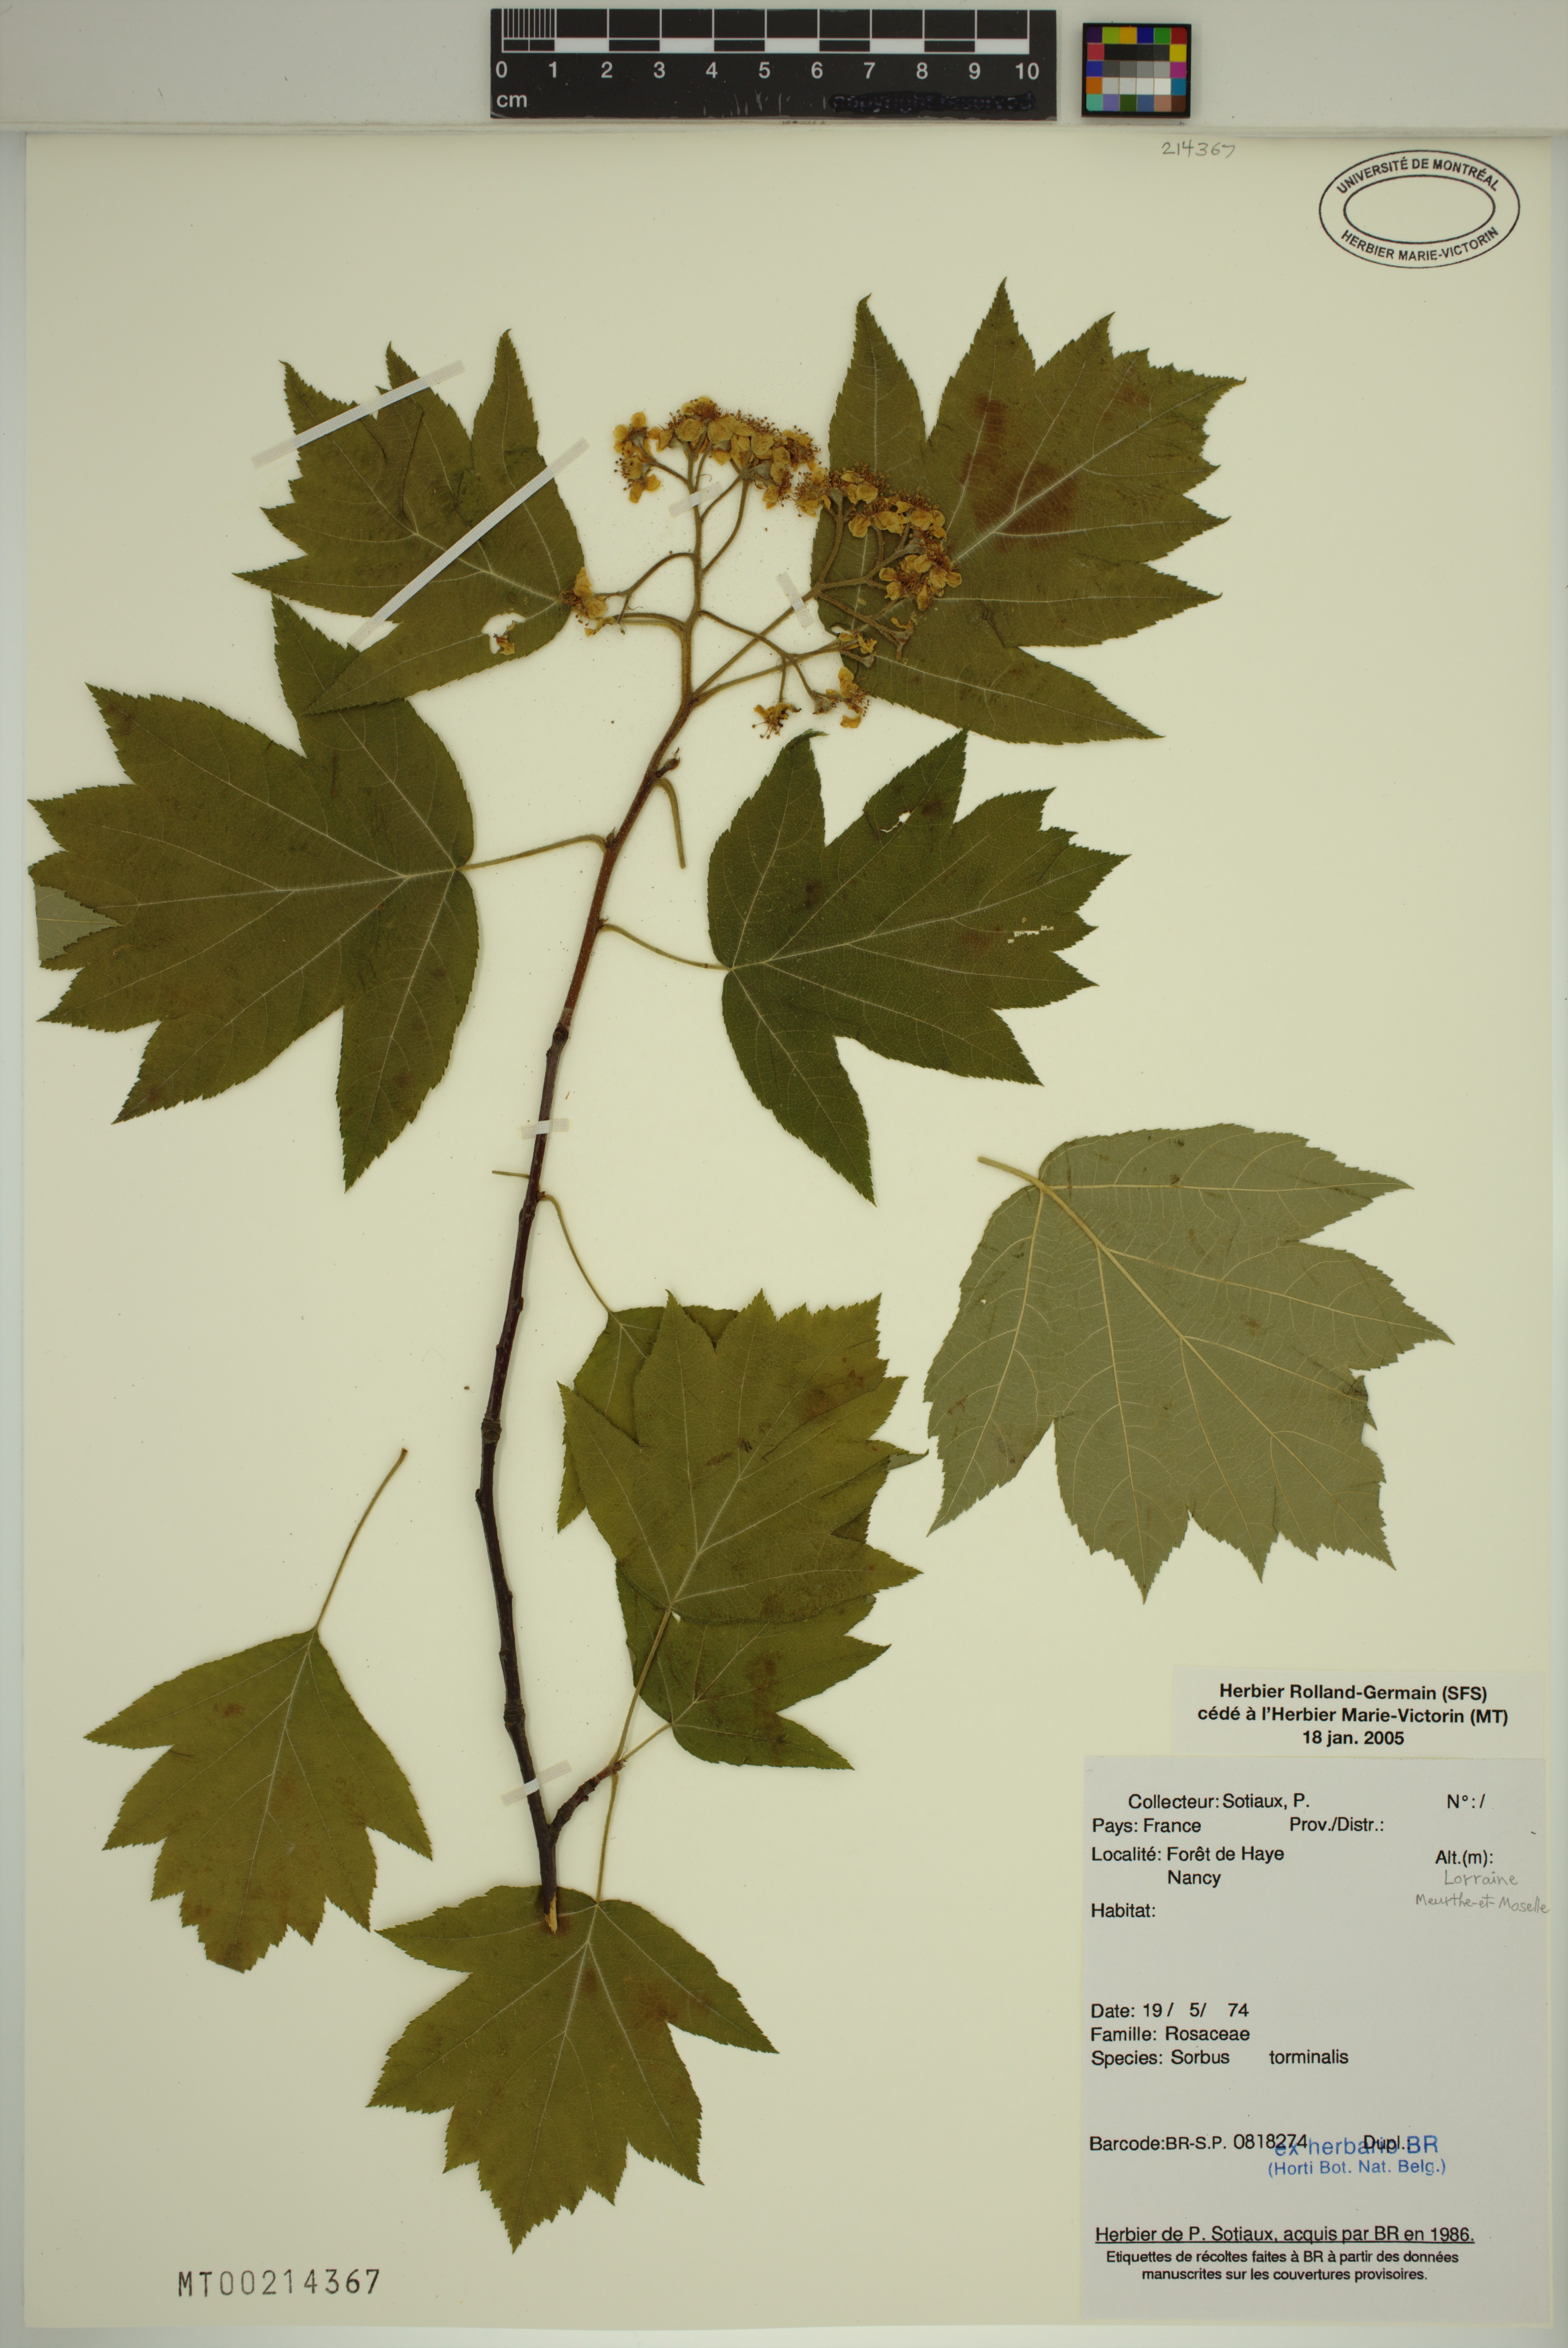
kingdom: Plantae
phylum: Tracheophyta
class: Magnoliopsida
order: Rosales
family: Rosaceae
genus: Torminalis
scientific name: Torminalis glaberrima
